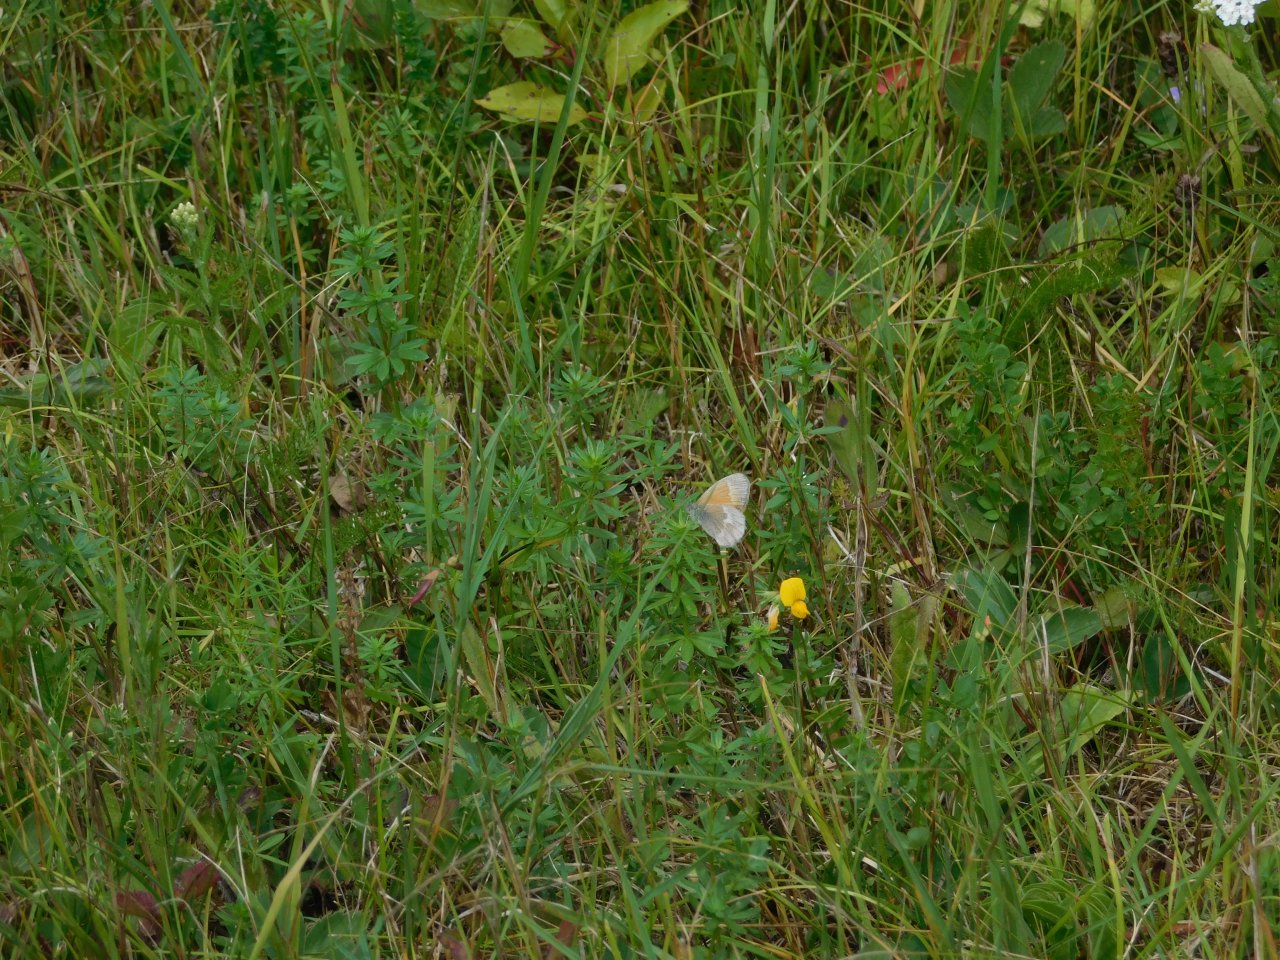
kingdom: Animalia
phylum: Arthropoda
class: Insecta
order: Lepidoptera
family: Nymphalidae
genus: Coenonympha
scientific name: Coenonympha tullia
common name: Large Heath
